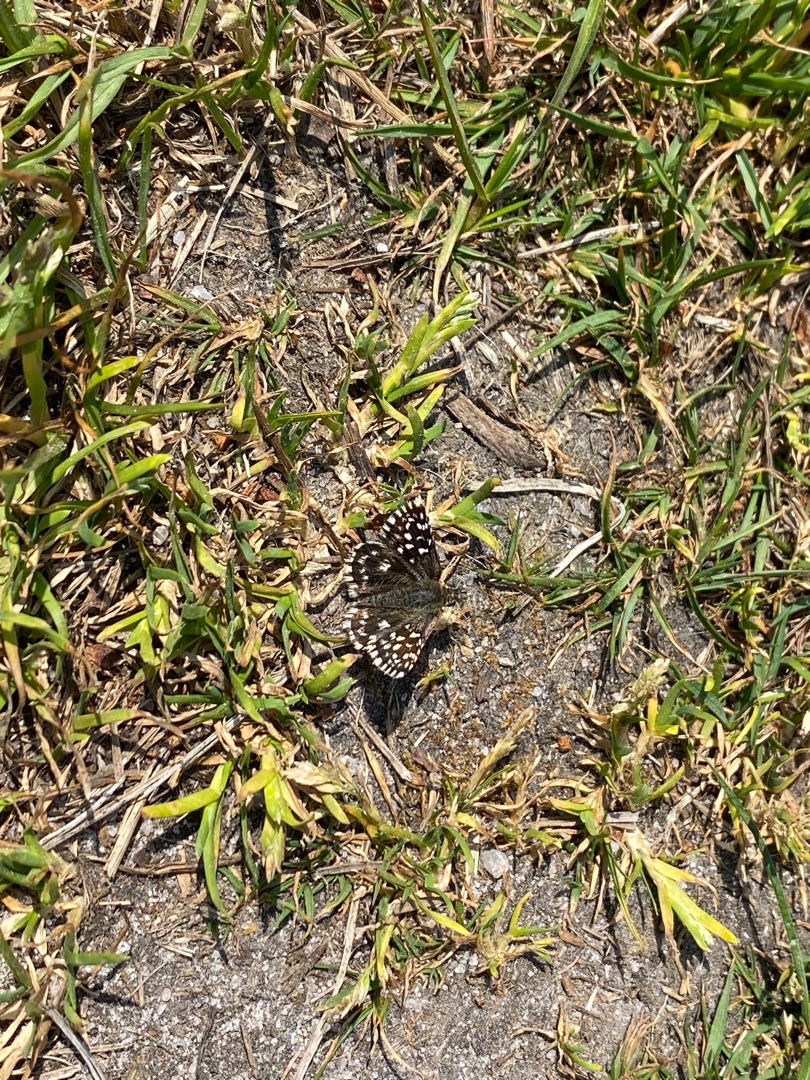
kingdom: Animalia
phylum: Arthropoda
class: Insecta
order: Lepidoptera
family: Hesperiidae
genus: Pyrgus
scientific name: Pyrgus malvae
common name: Spættet bredpande
